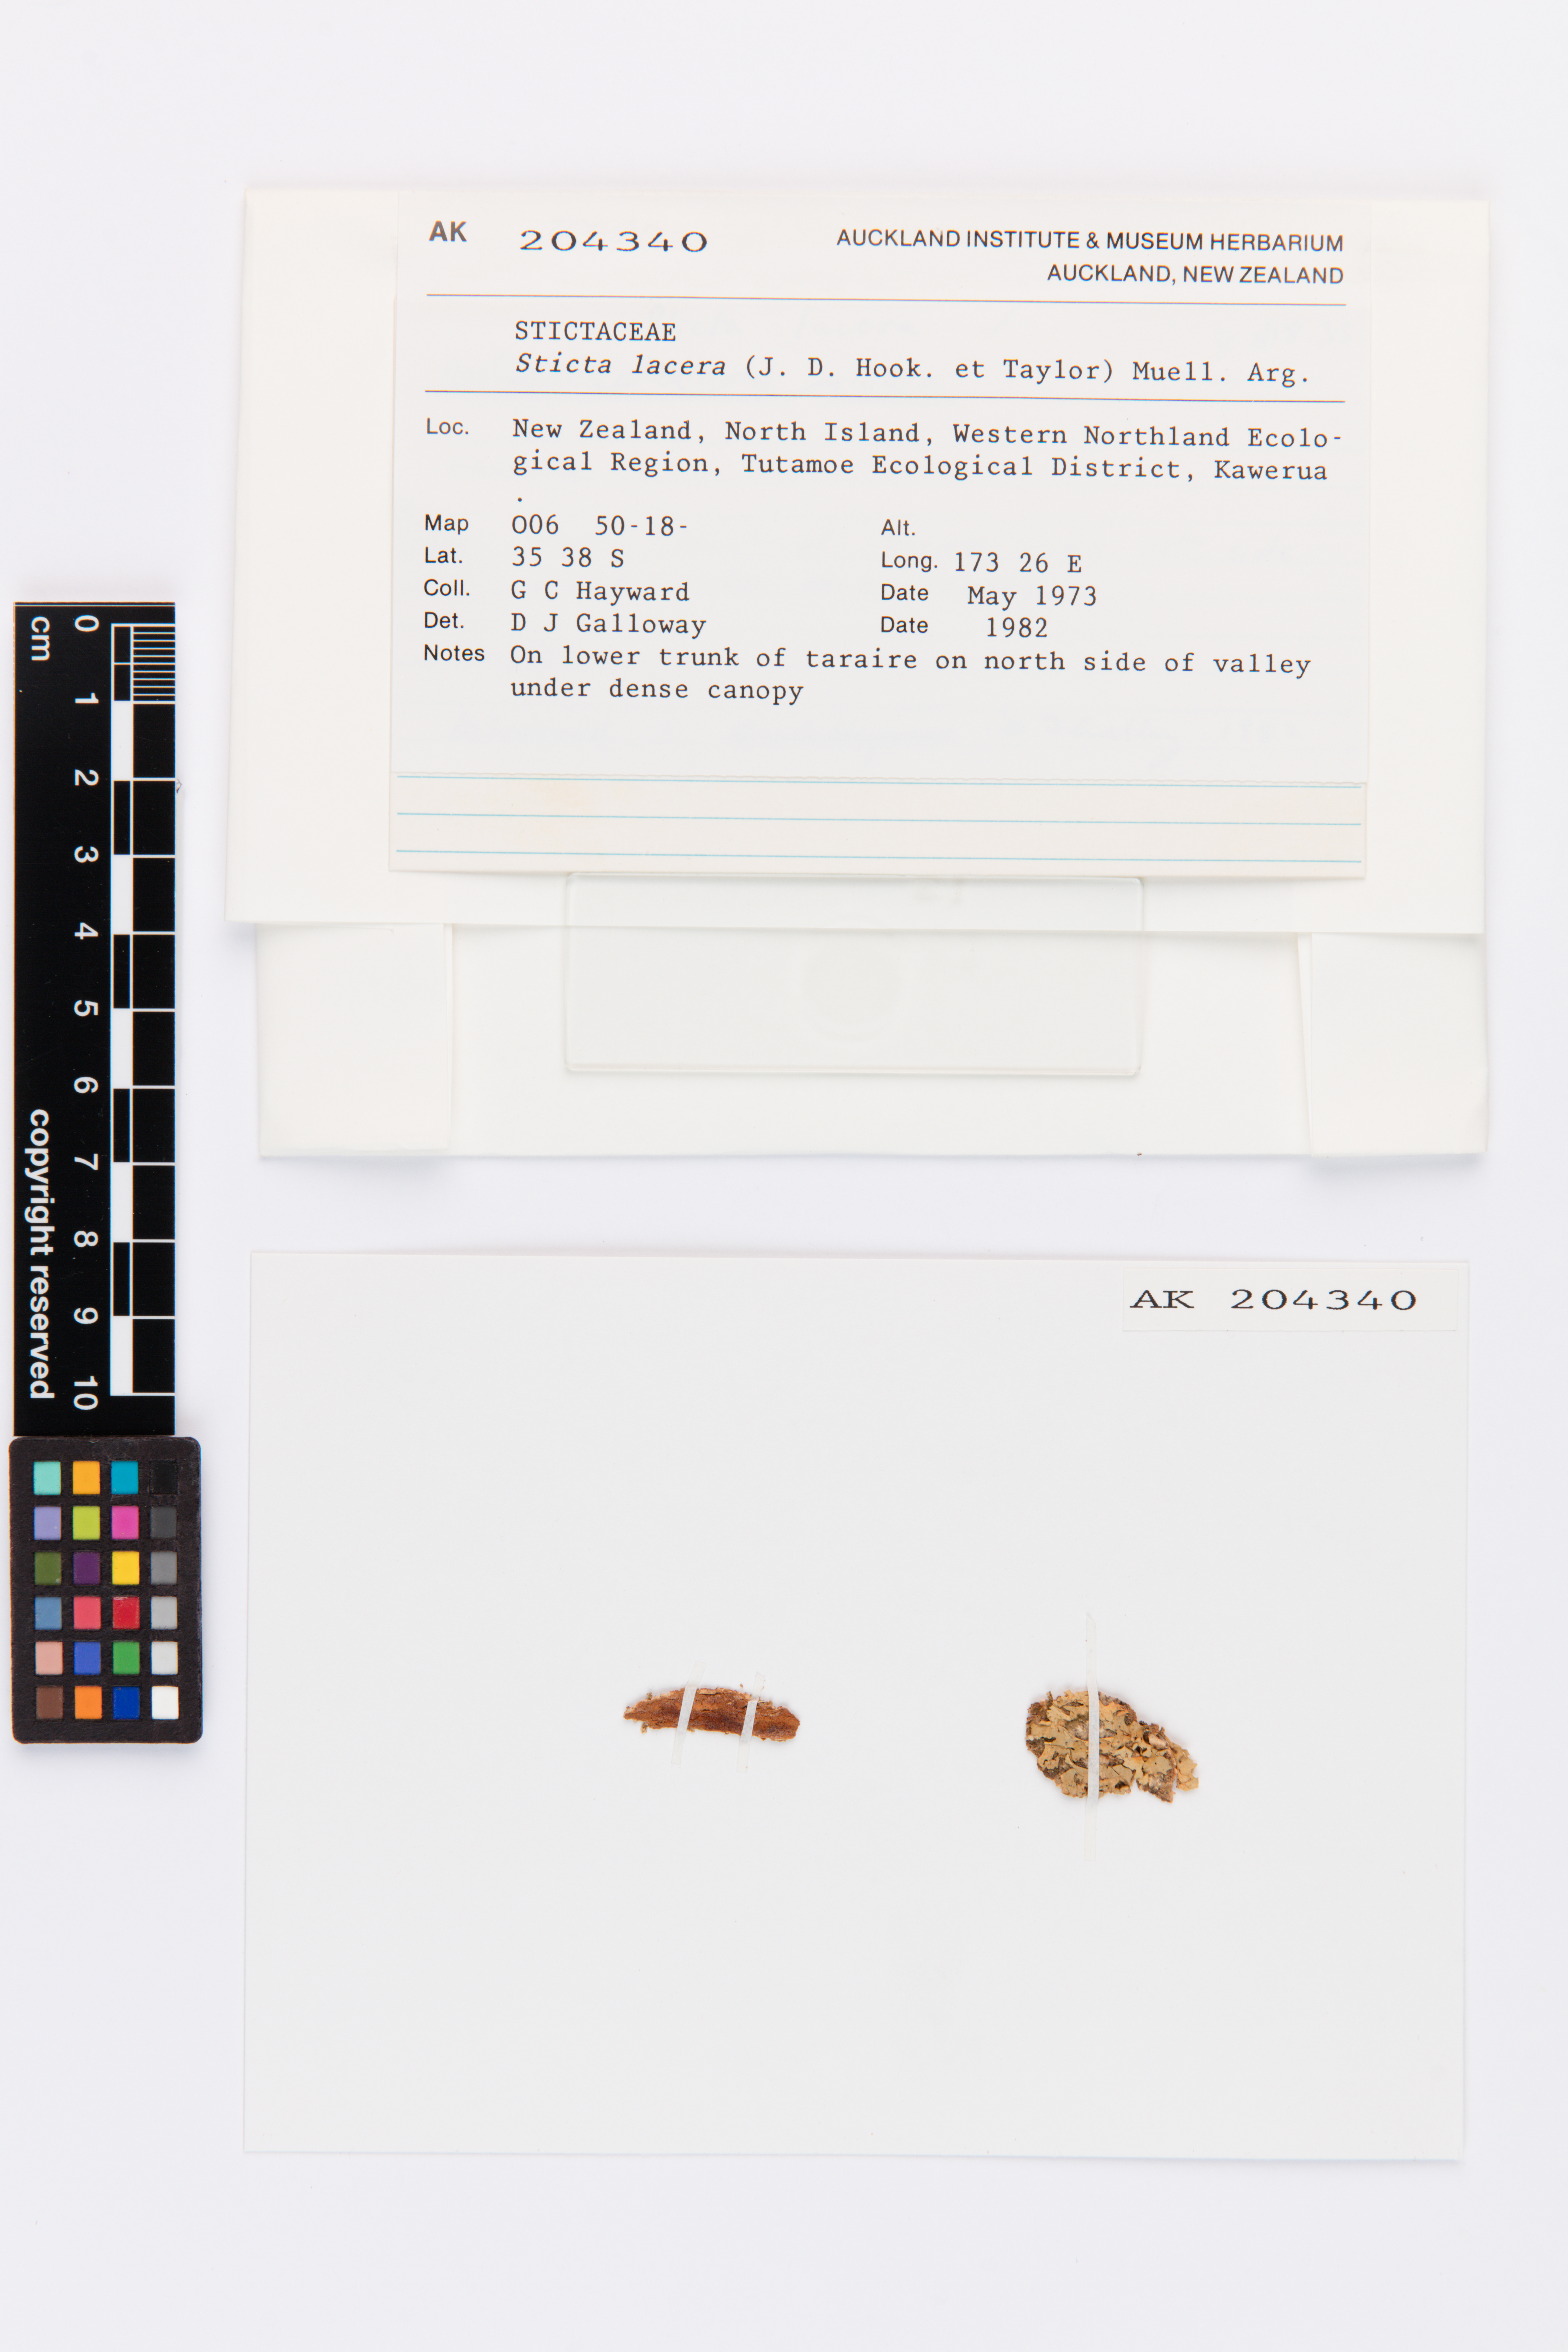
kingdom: Fungi
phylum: Ascomycota
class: Lecanoromycetes
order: Peltigerales
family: Lobariaceae
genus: Sticta
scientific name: Sticta
